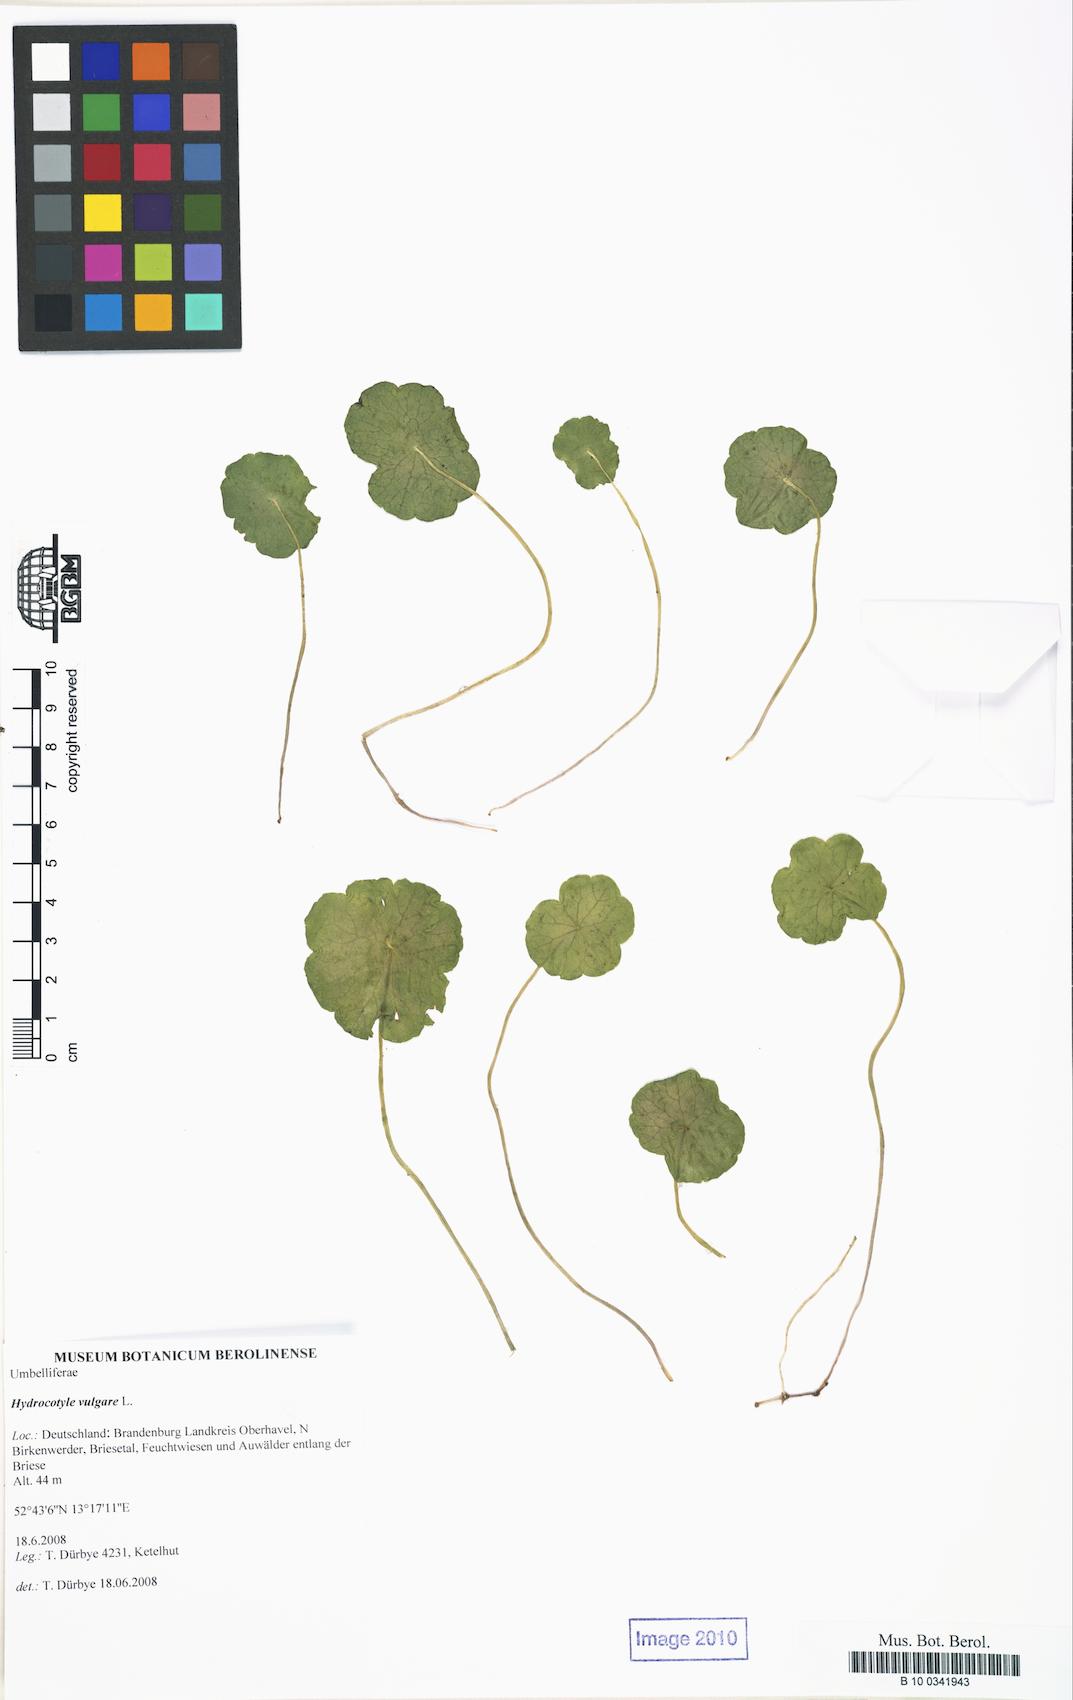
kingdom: Plantae
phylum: Tracheophyta
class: Magnoliopsida
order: Apiales
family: Araliaceae
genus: Hydrocotyle
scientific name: Hydrocotyle vulgaris
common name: Marsh pennywort
